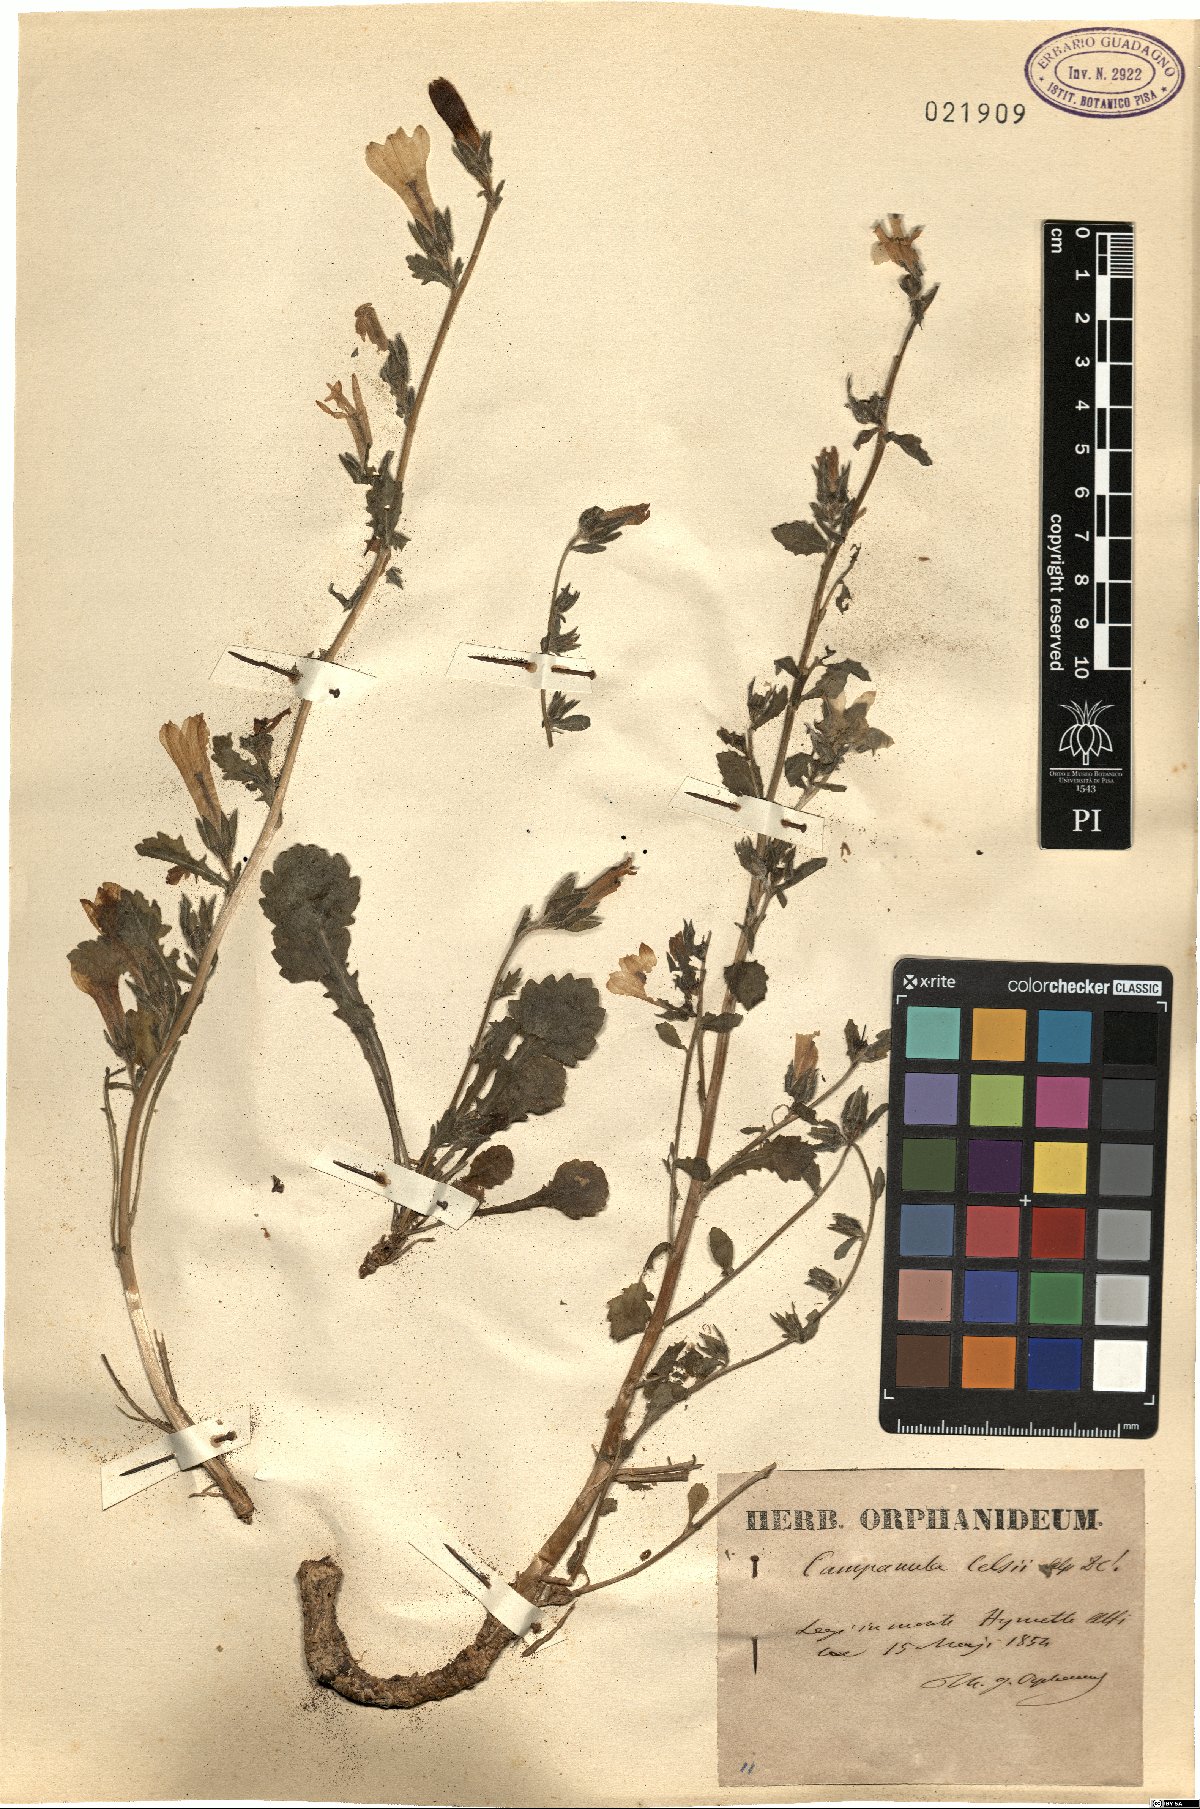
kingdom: Plantae
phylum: Tracheophyta
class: Magnoliopsida
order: Asterales
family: Campanulaceae
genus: Campanula
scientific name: Campanula celsii
